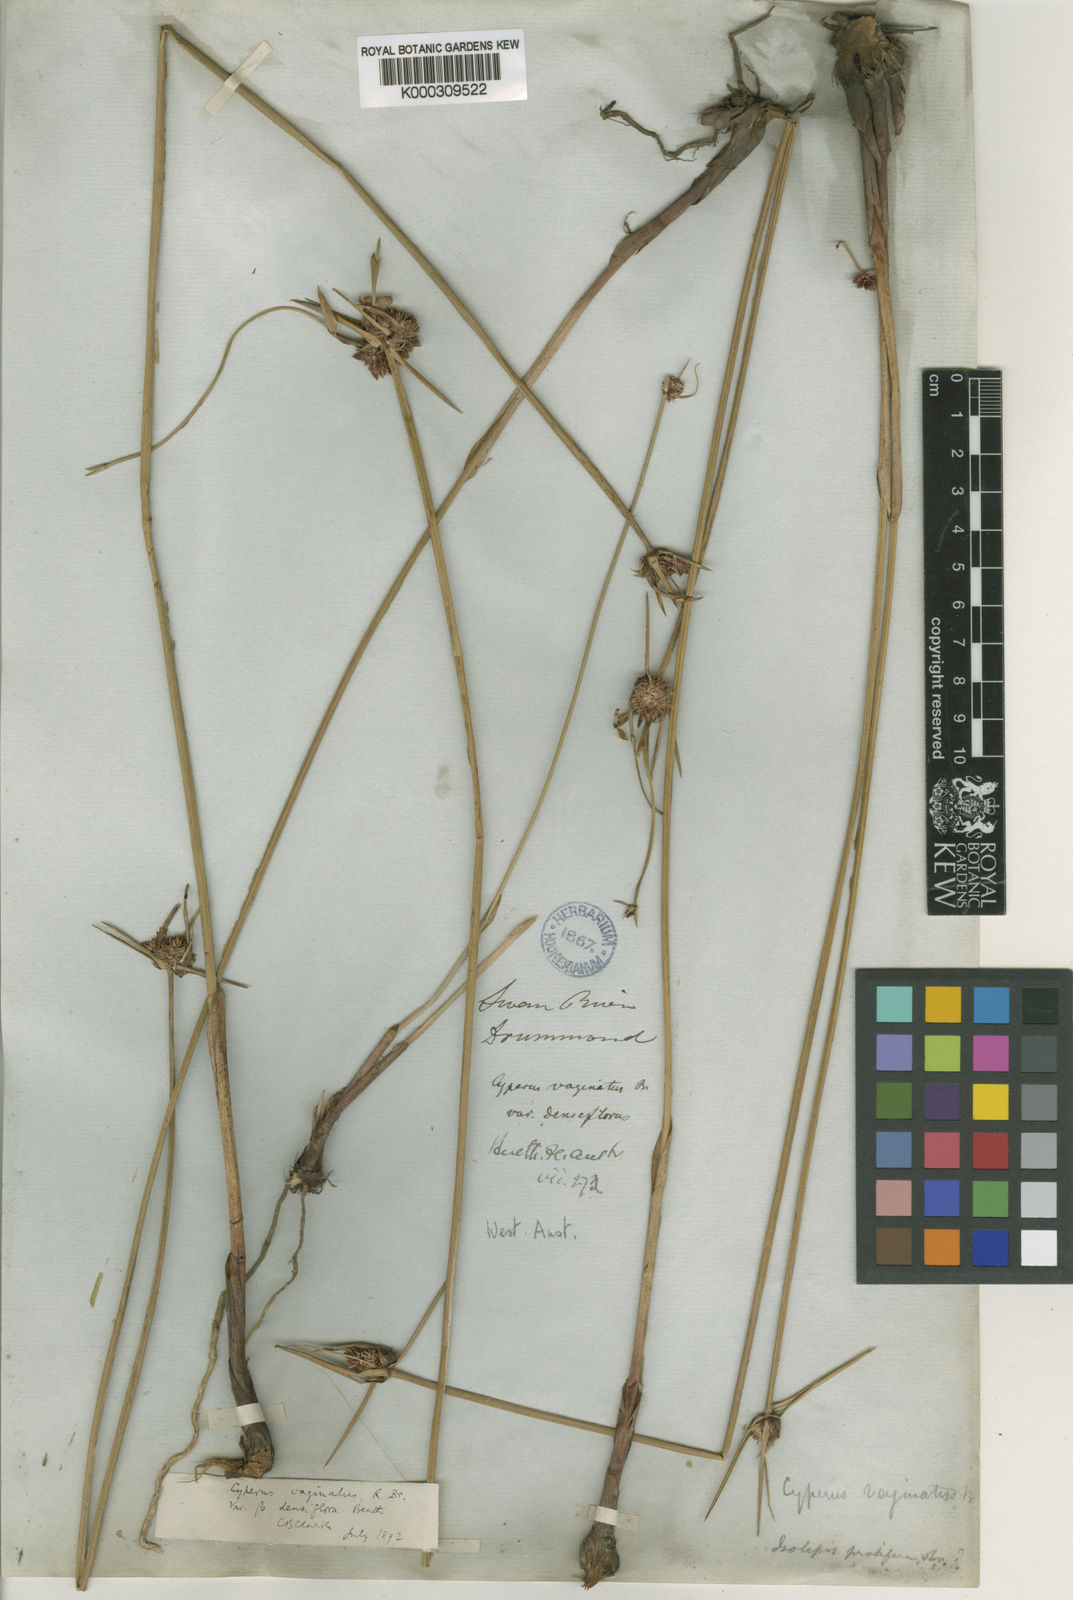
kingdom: Plantae
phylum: Tracheophyta
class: Liliopsida
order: Poales
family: Cyperaceae
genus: Cyperus
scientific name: Cyperus gymnocaulos
